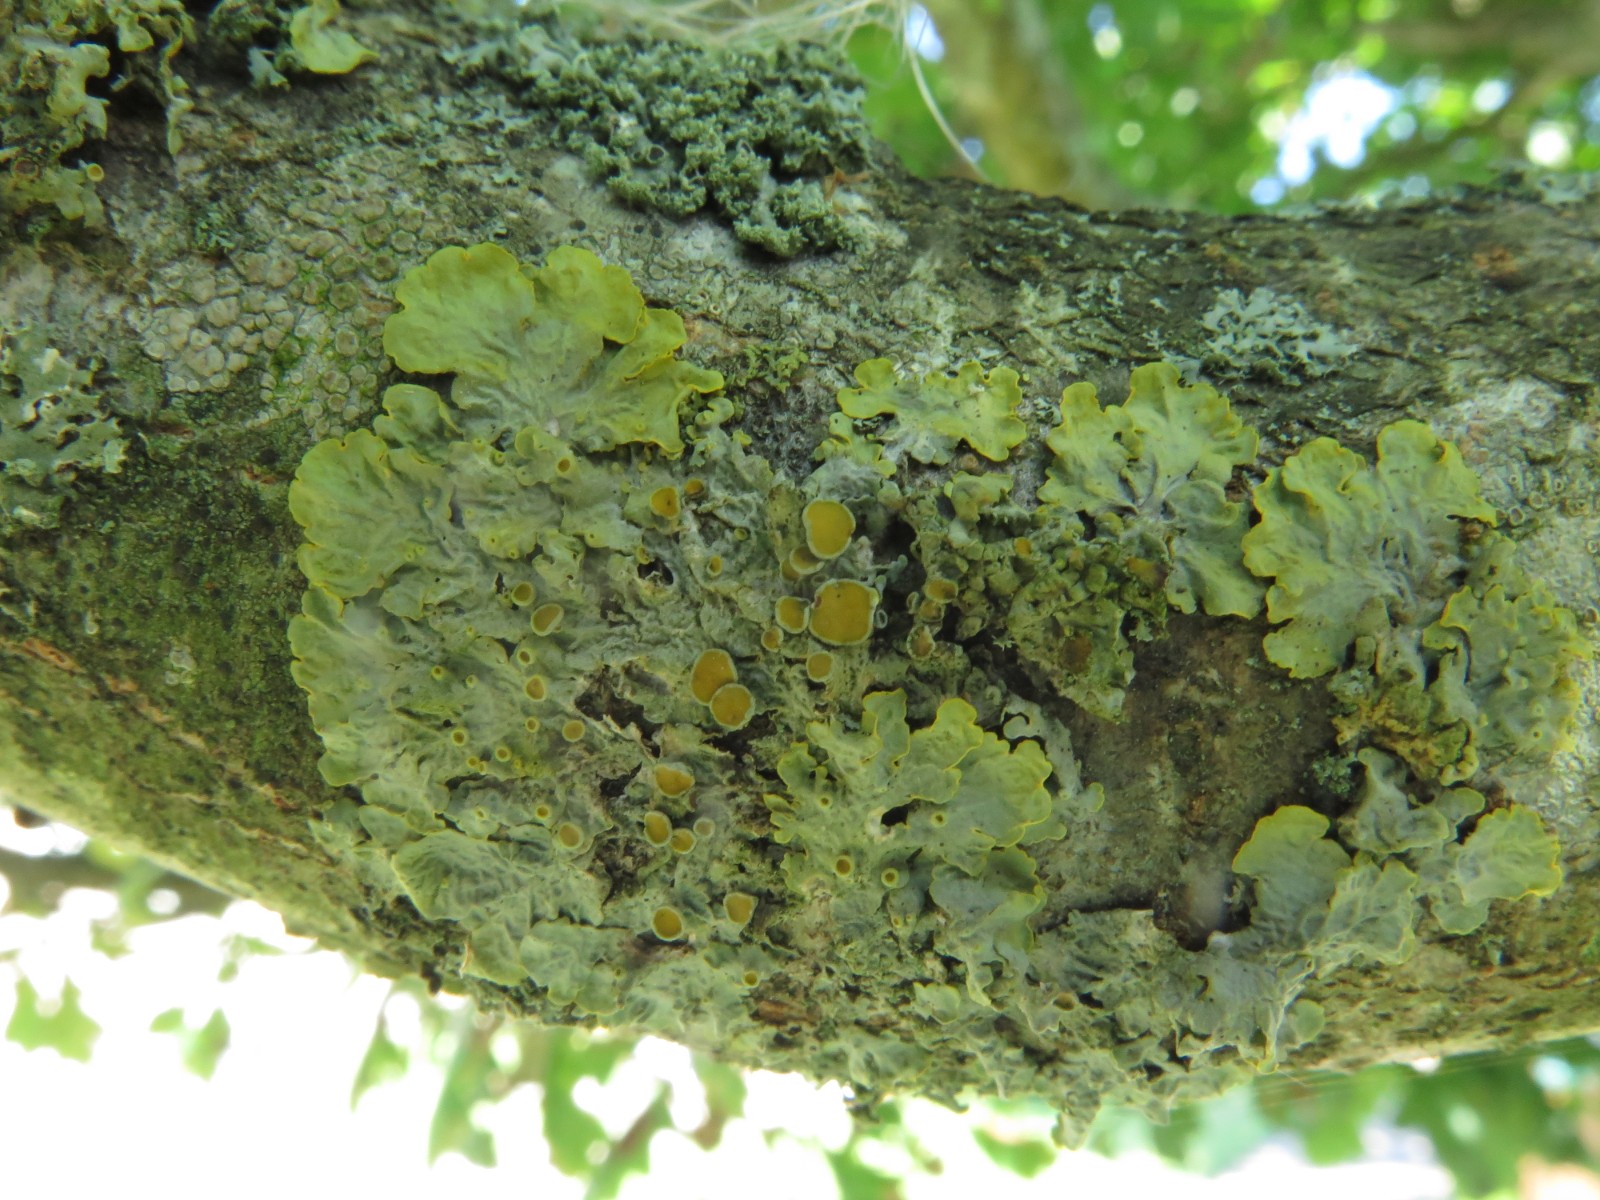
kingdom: Fungi
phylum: Ascomycota
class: Lecanoromycetes
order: Teloschistales
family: Teloschistaceae
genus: Xanthoria
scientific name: Xanthoria parietina
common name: almindelig væggelav
